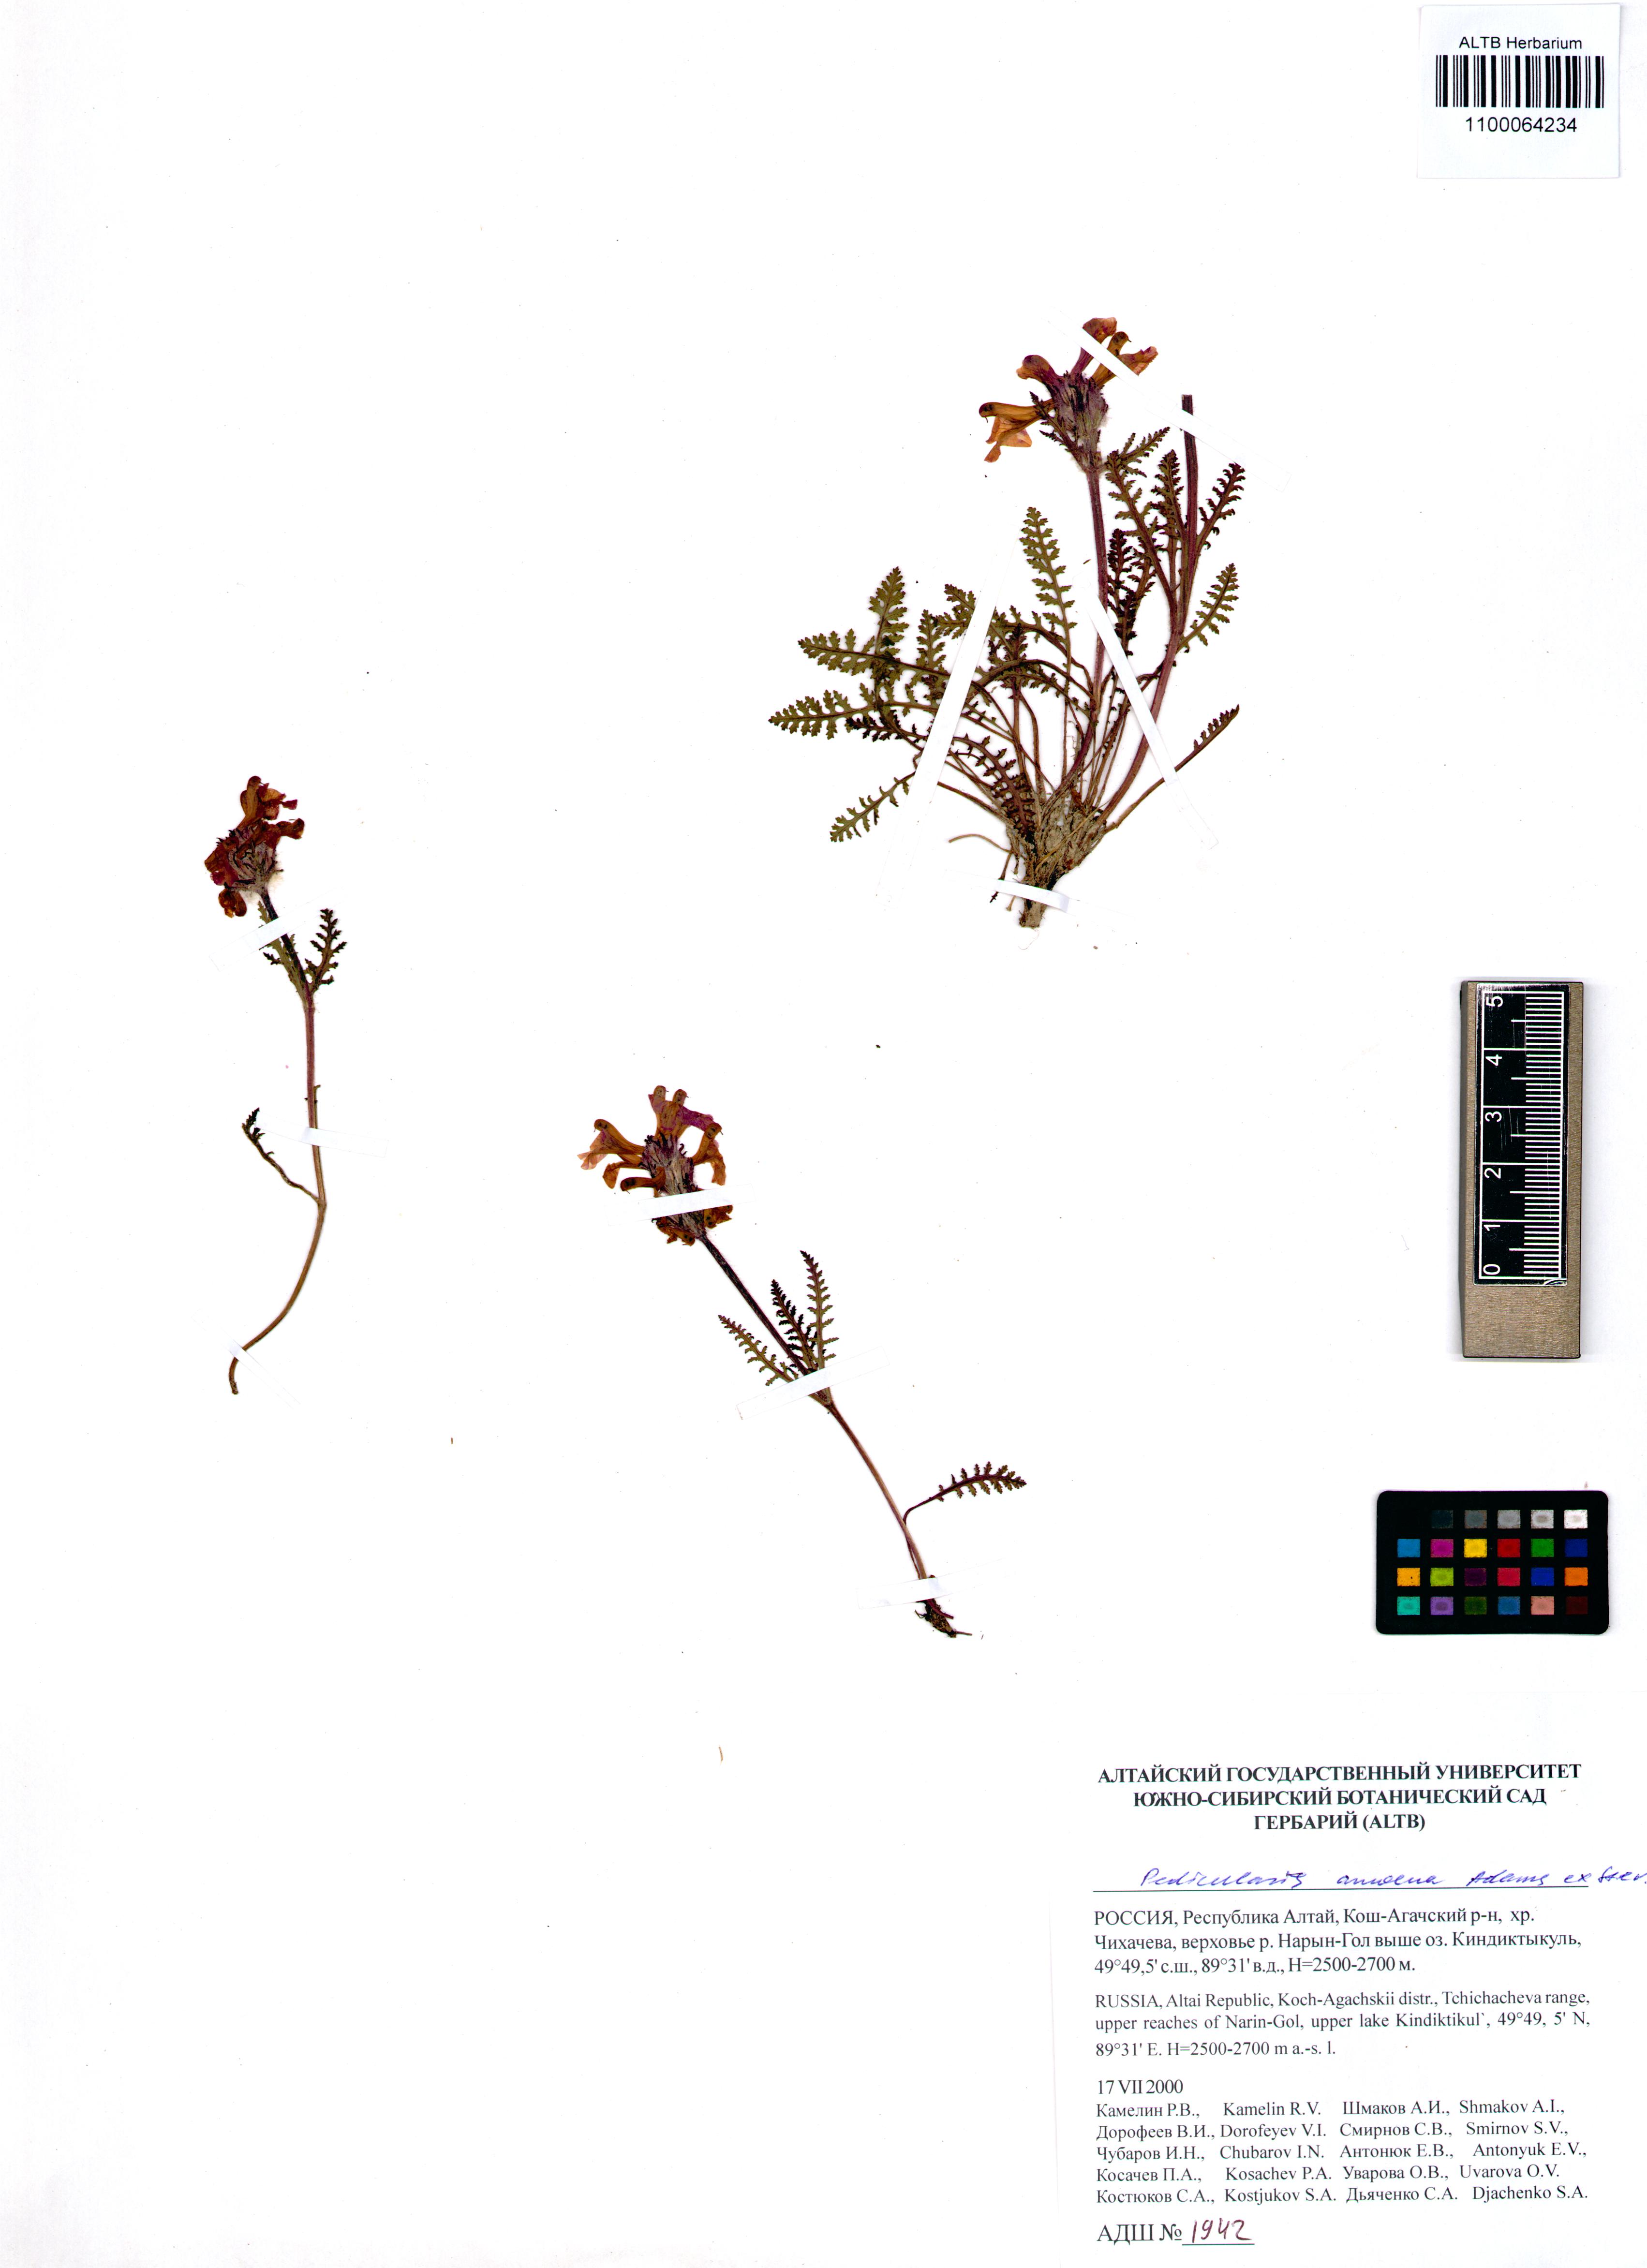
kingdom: Plantae
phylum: Tracheophyta
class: Magnoliopsida
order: Lamiales
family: Orobanchaceae
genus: Pedicularis
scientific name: Pedicularis amoena
